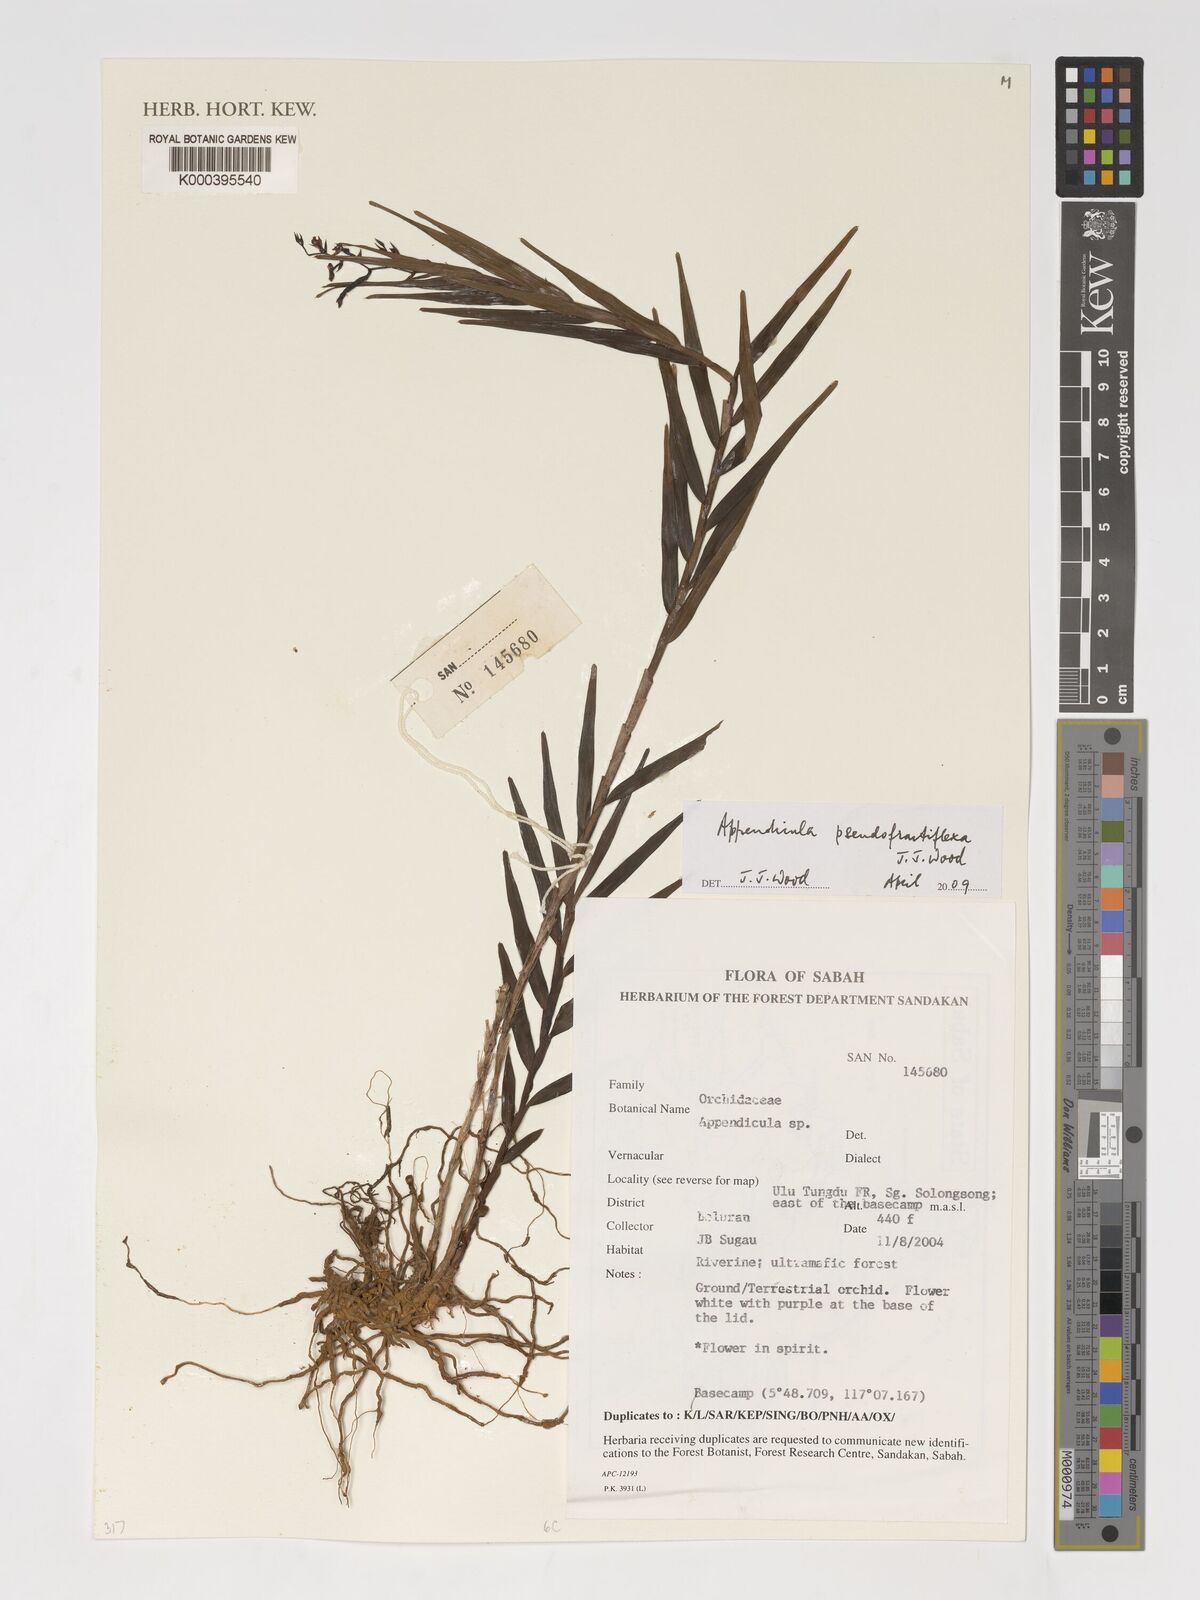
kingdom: Plantae
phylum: Tracheophyta
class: Liliopsida
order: Asparagales
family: Orchidaceae
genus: Appendicula
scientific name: Appendicula pseudofractiflexa
